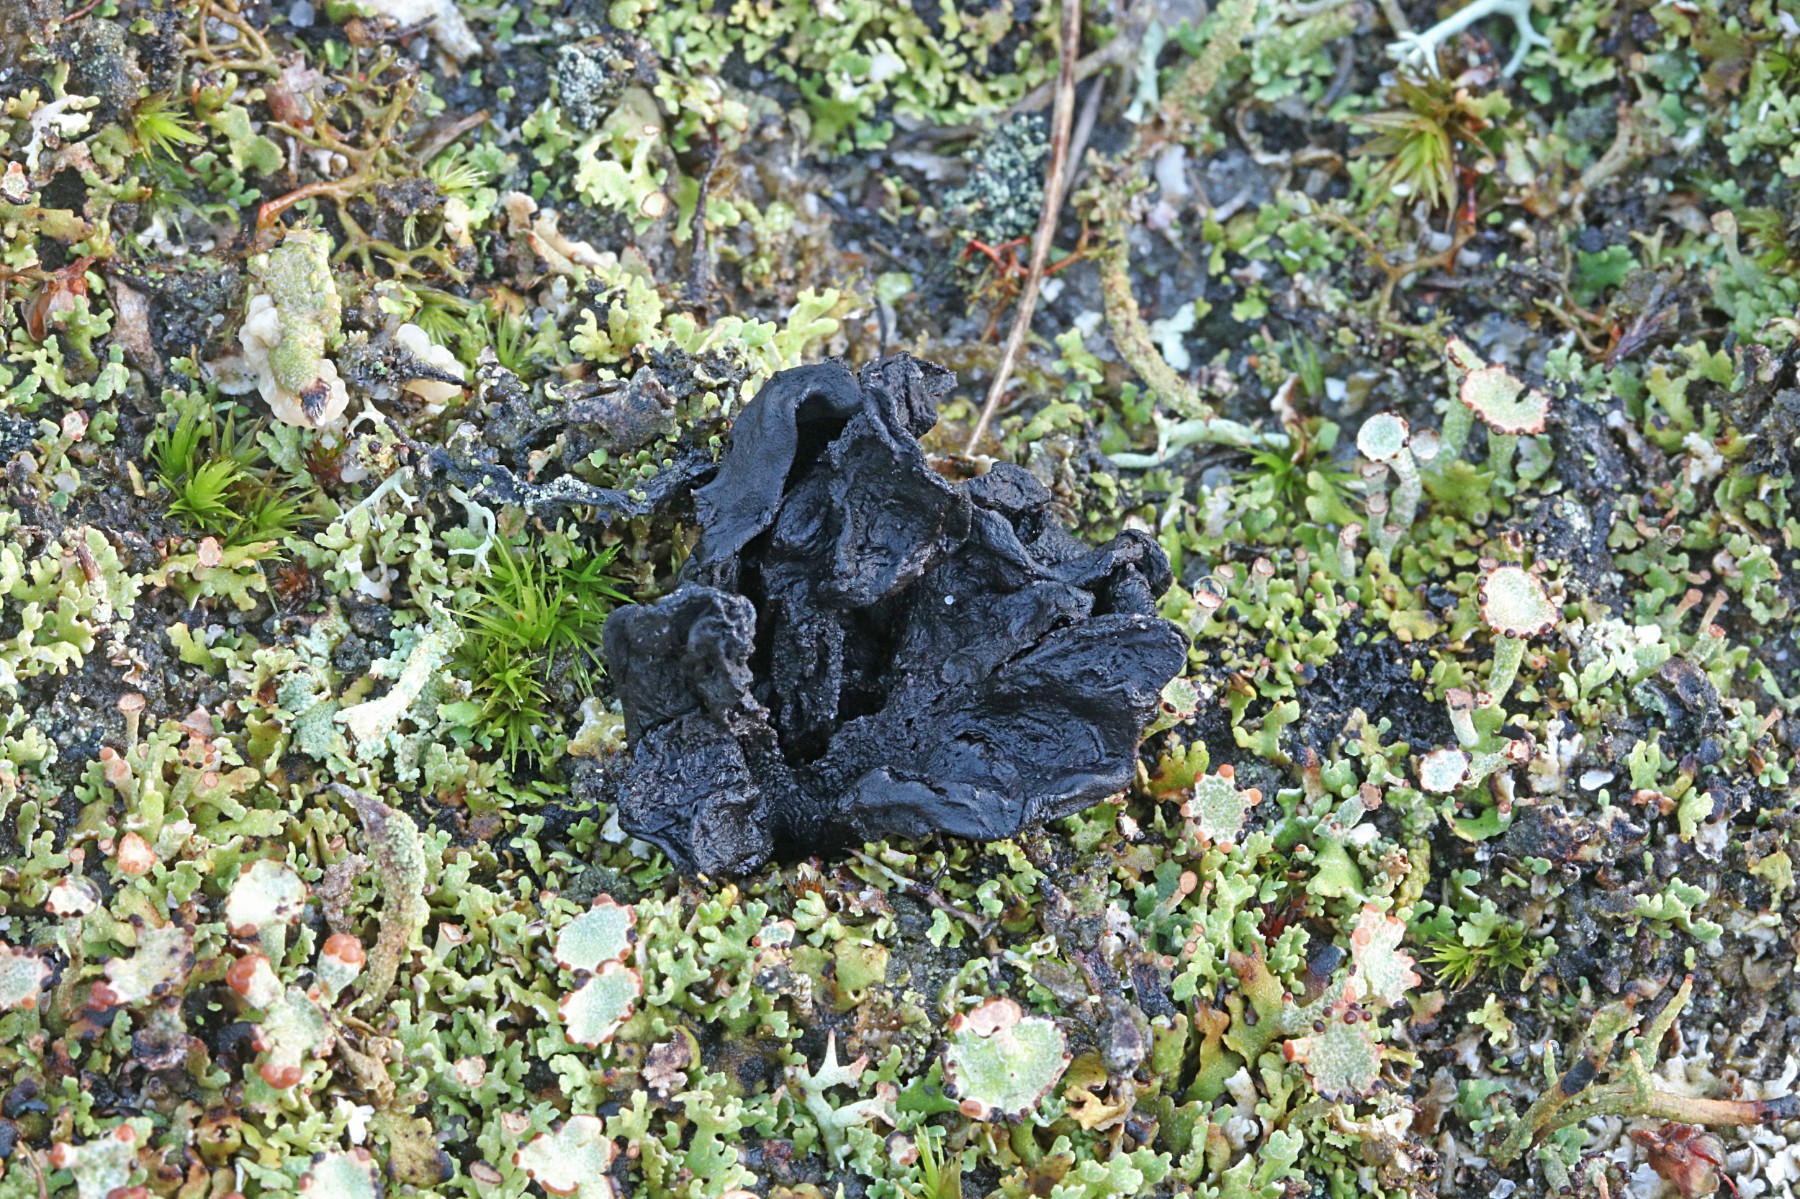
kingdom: Fungi
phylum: Ascomycota
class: Geoglossomycetes
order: Geoglossales
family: Geoglossaceae
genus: Sabuloglossum
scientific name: Sabuloglossum arenarium
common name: klit-jordtunge
